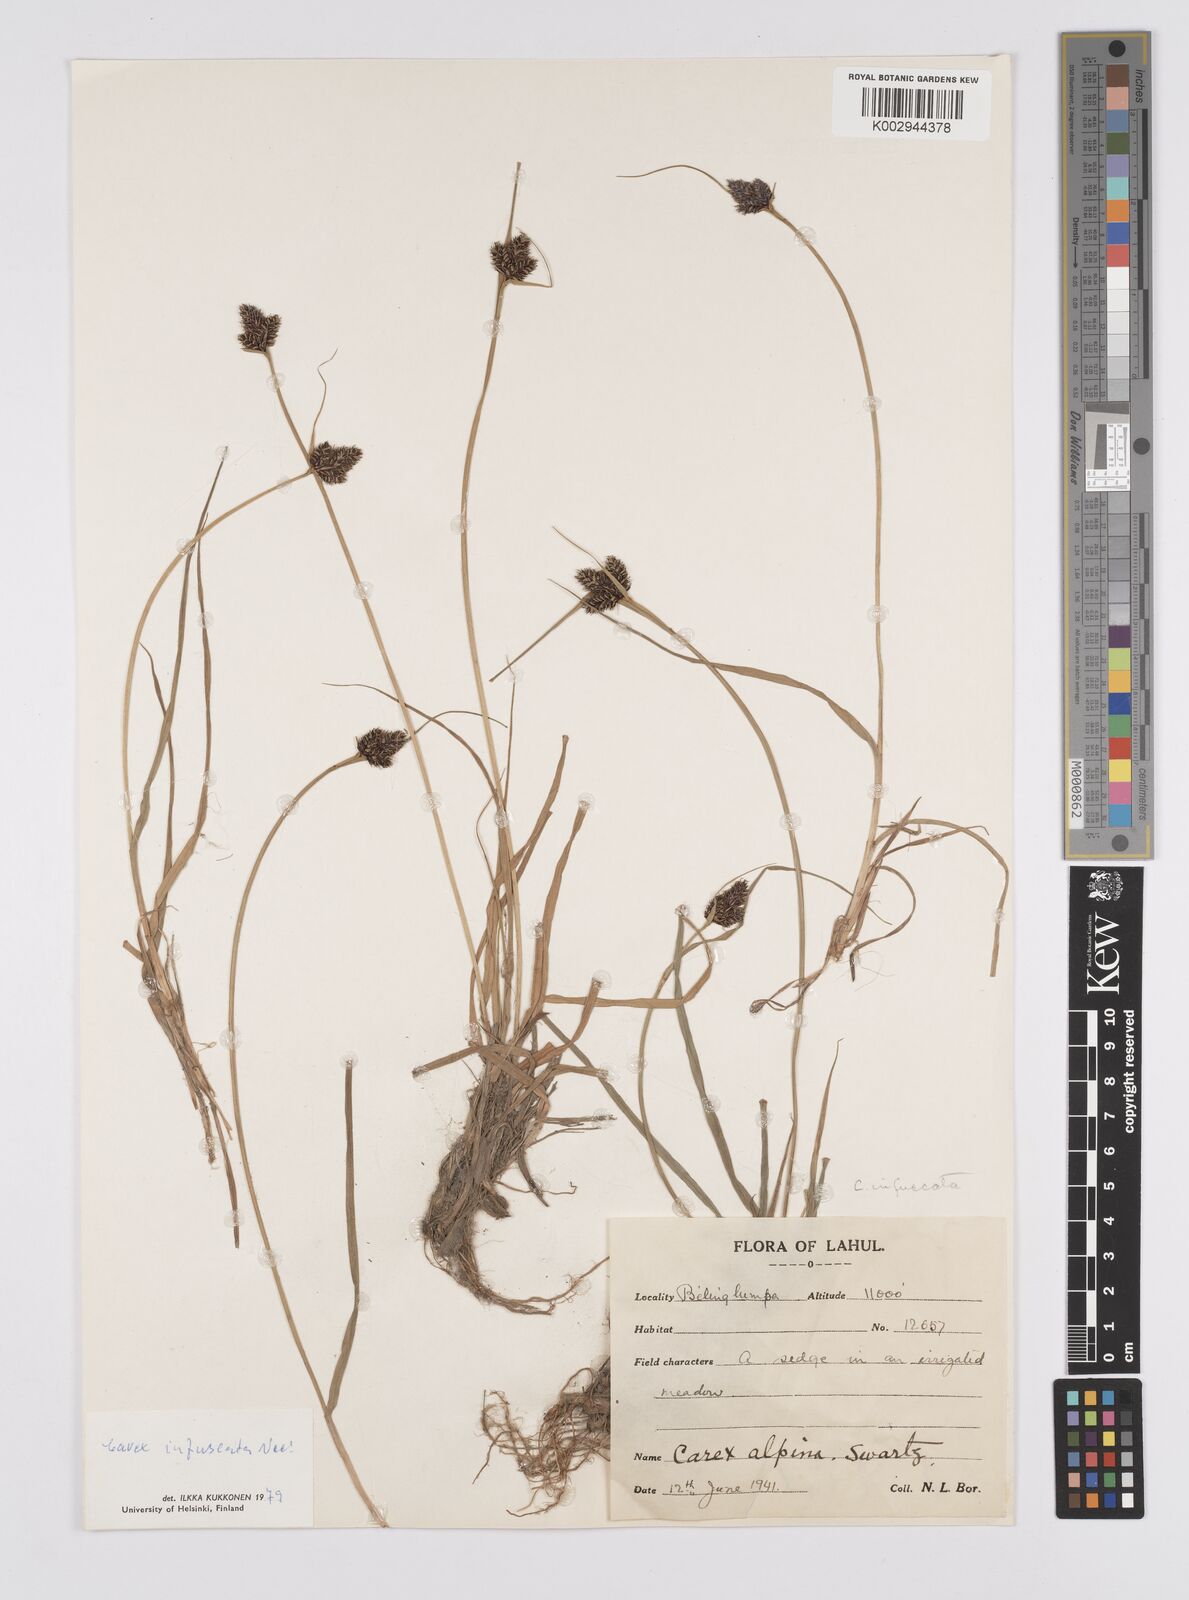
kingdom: Plantae
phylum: Tracheophyta
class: Liliopsida
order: Poales
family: Cyperaceae
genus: Carex
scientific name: Carex norvegica
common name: Close-headed alpine-sedge
